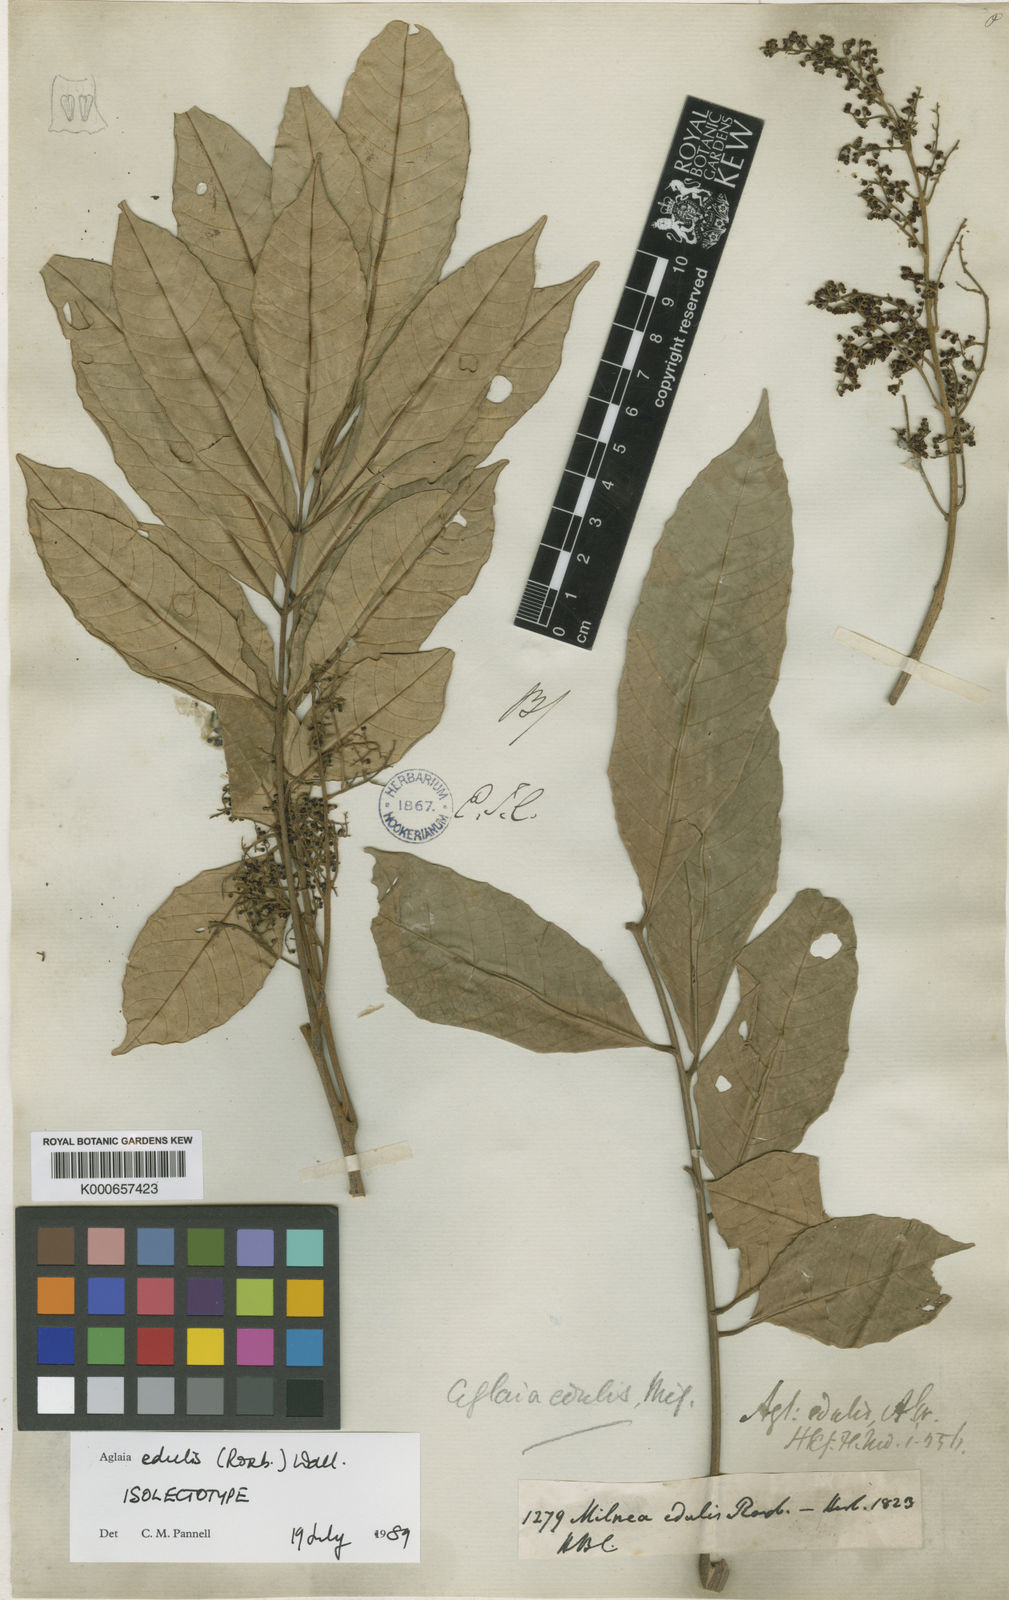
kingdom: Plantae
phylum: Tracheophyta
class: Magnoliopsida
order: Sapindales
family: Meliaceae
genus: Aglaia
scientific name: Aglaia edulis
